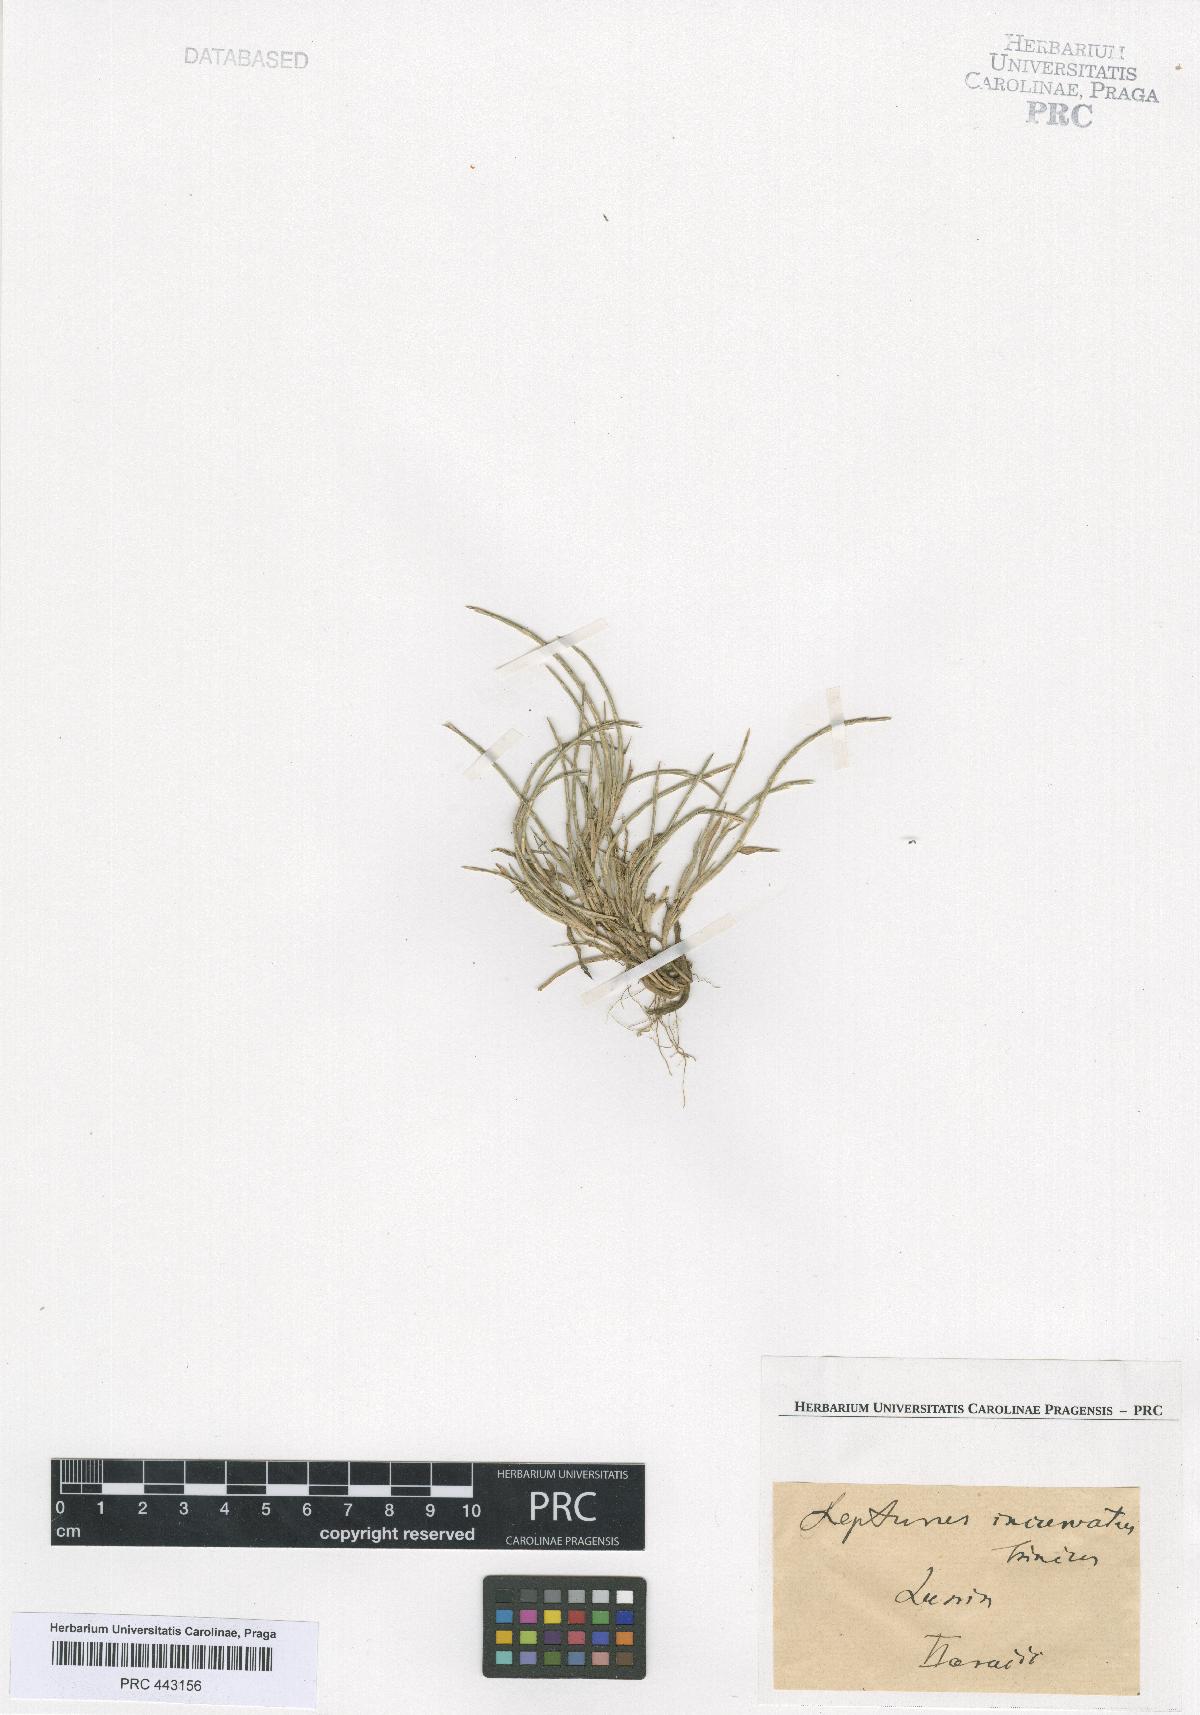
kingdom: Plantae
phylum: Tracheophyta
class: Liliopsida
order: Poales
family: Poaceae
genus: Parapholis
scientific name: Parapholis incurva
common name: Curved sicklegrass
